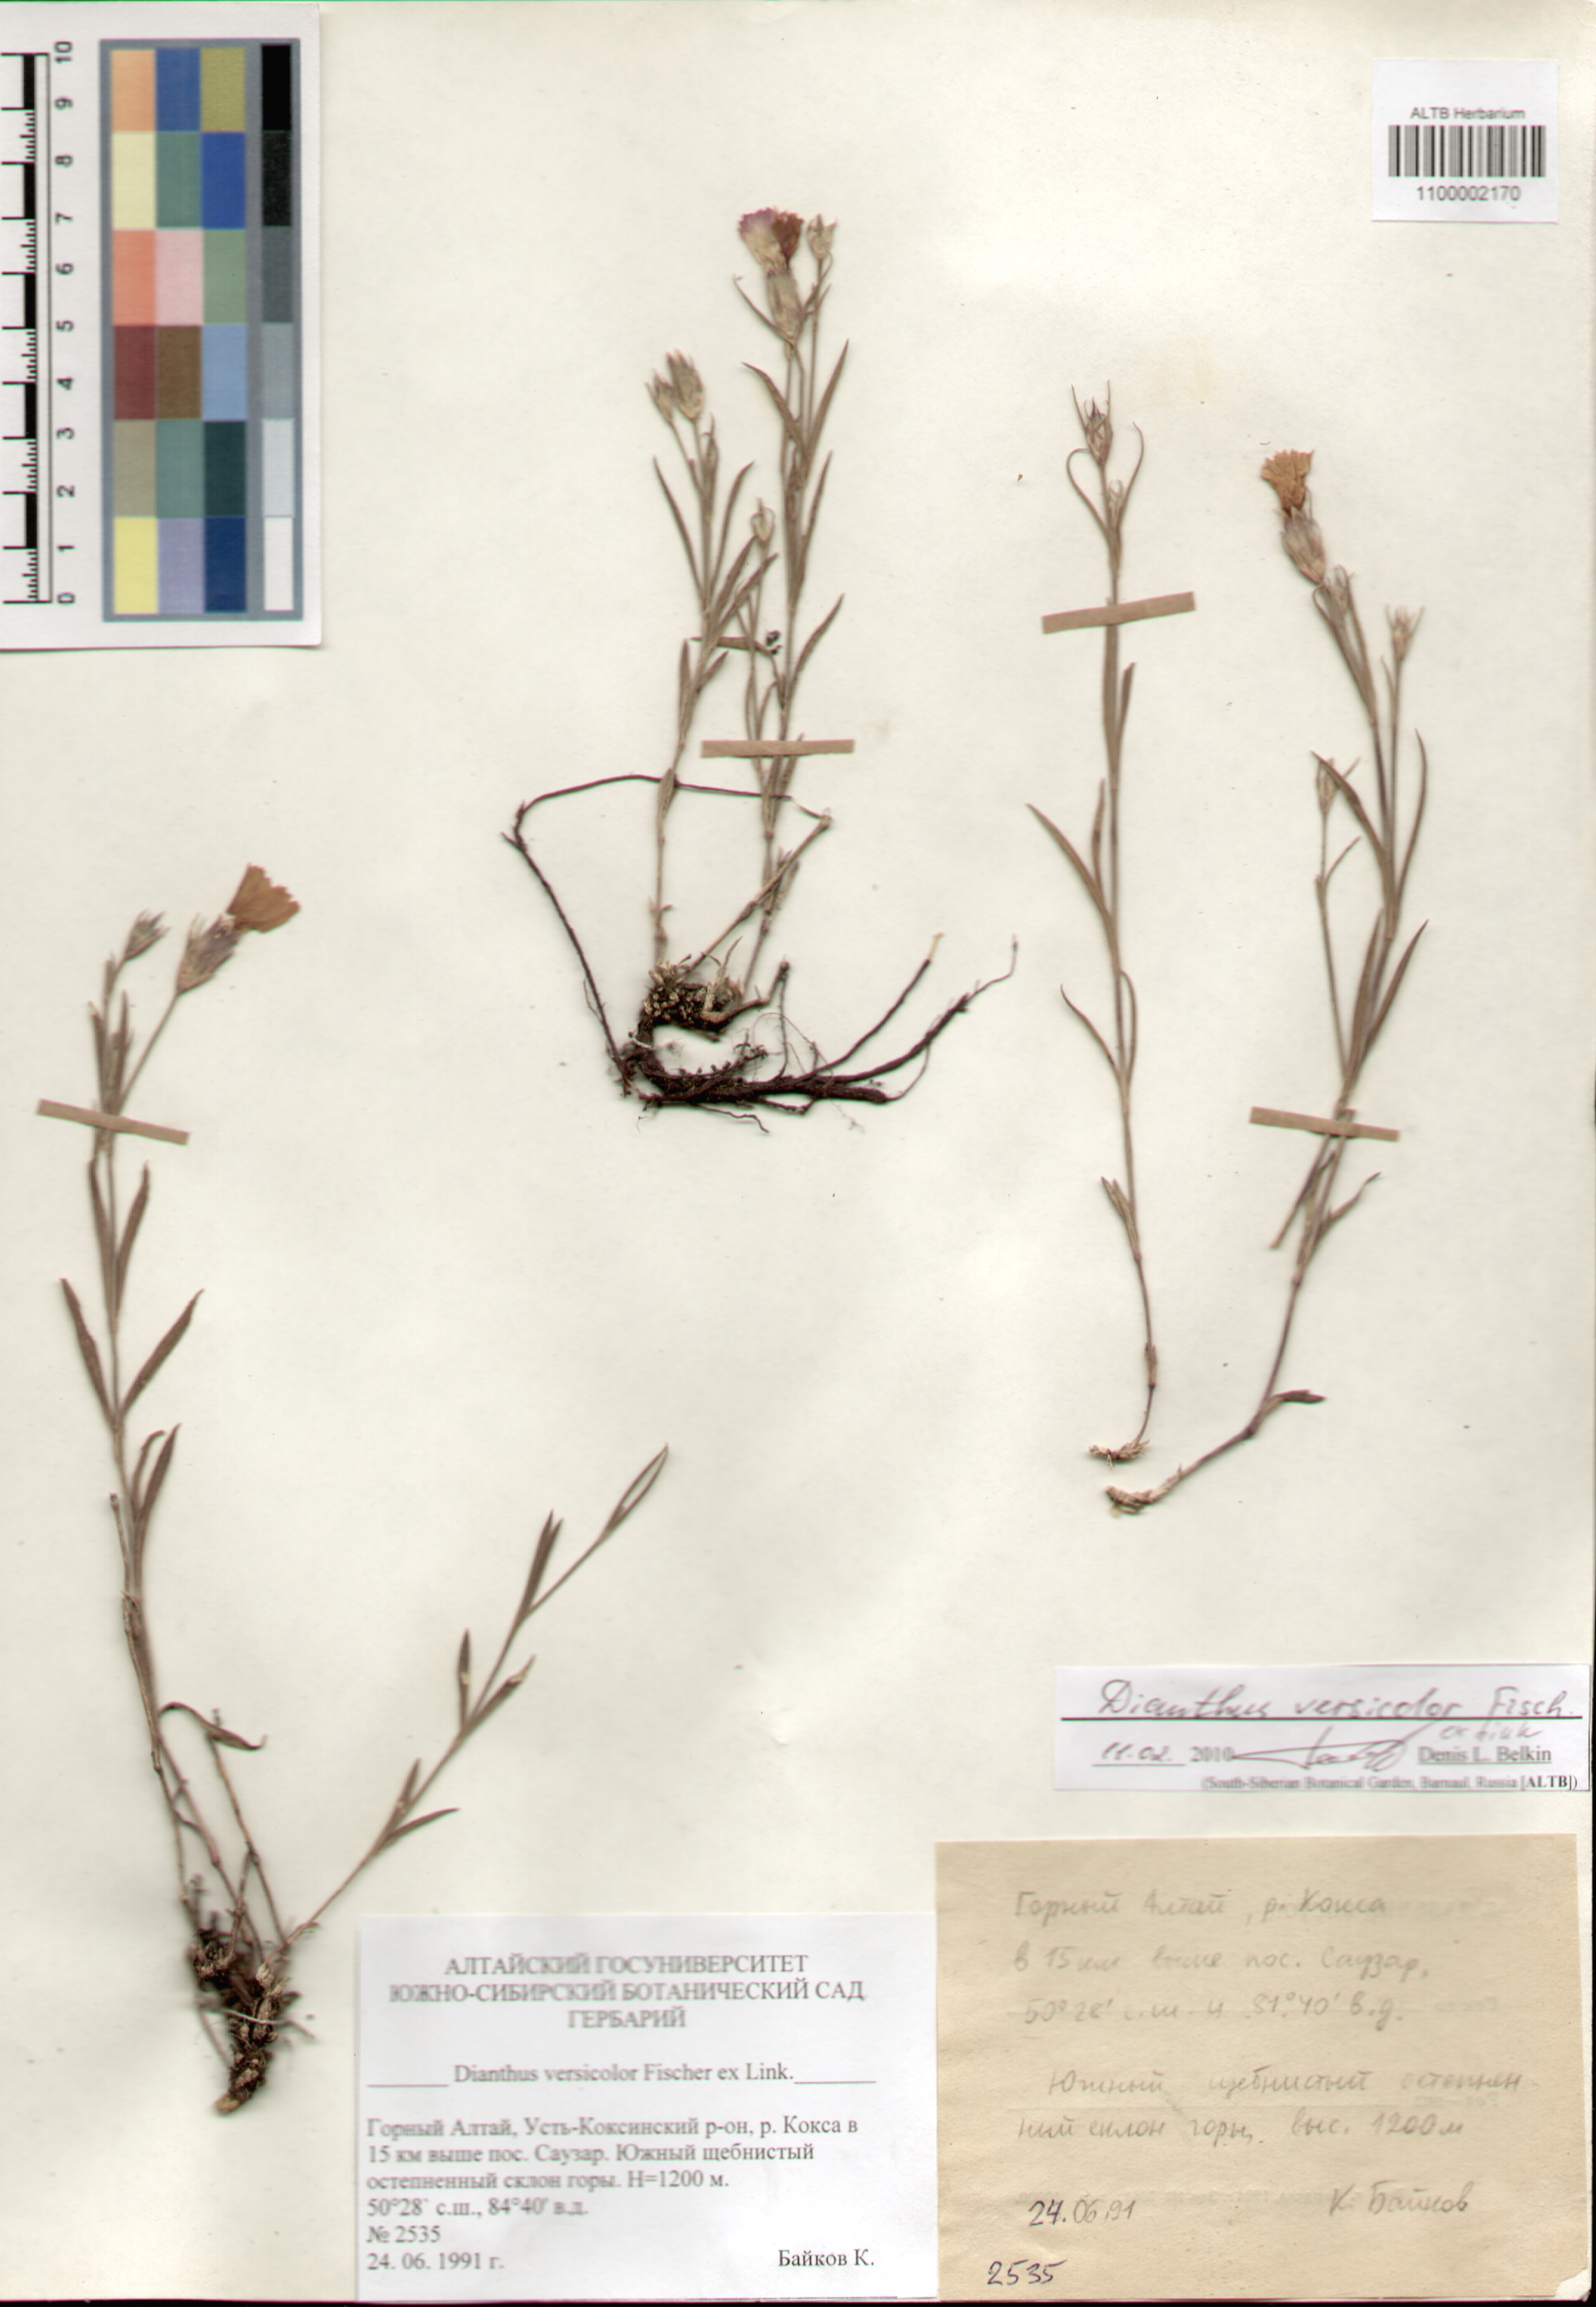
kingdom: Plantae
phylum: Tracheophyta
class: Magnoliopsida
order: Caryophyllales
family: Caryophyllaceae
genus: Dianthus
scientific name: Dianthus chinensis
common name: Rainbow pink
